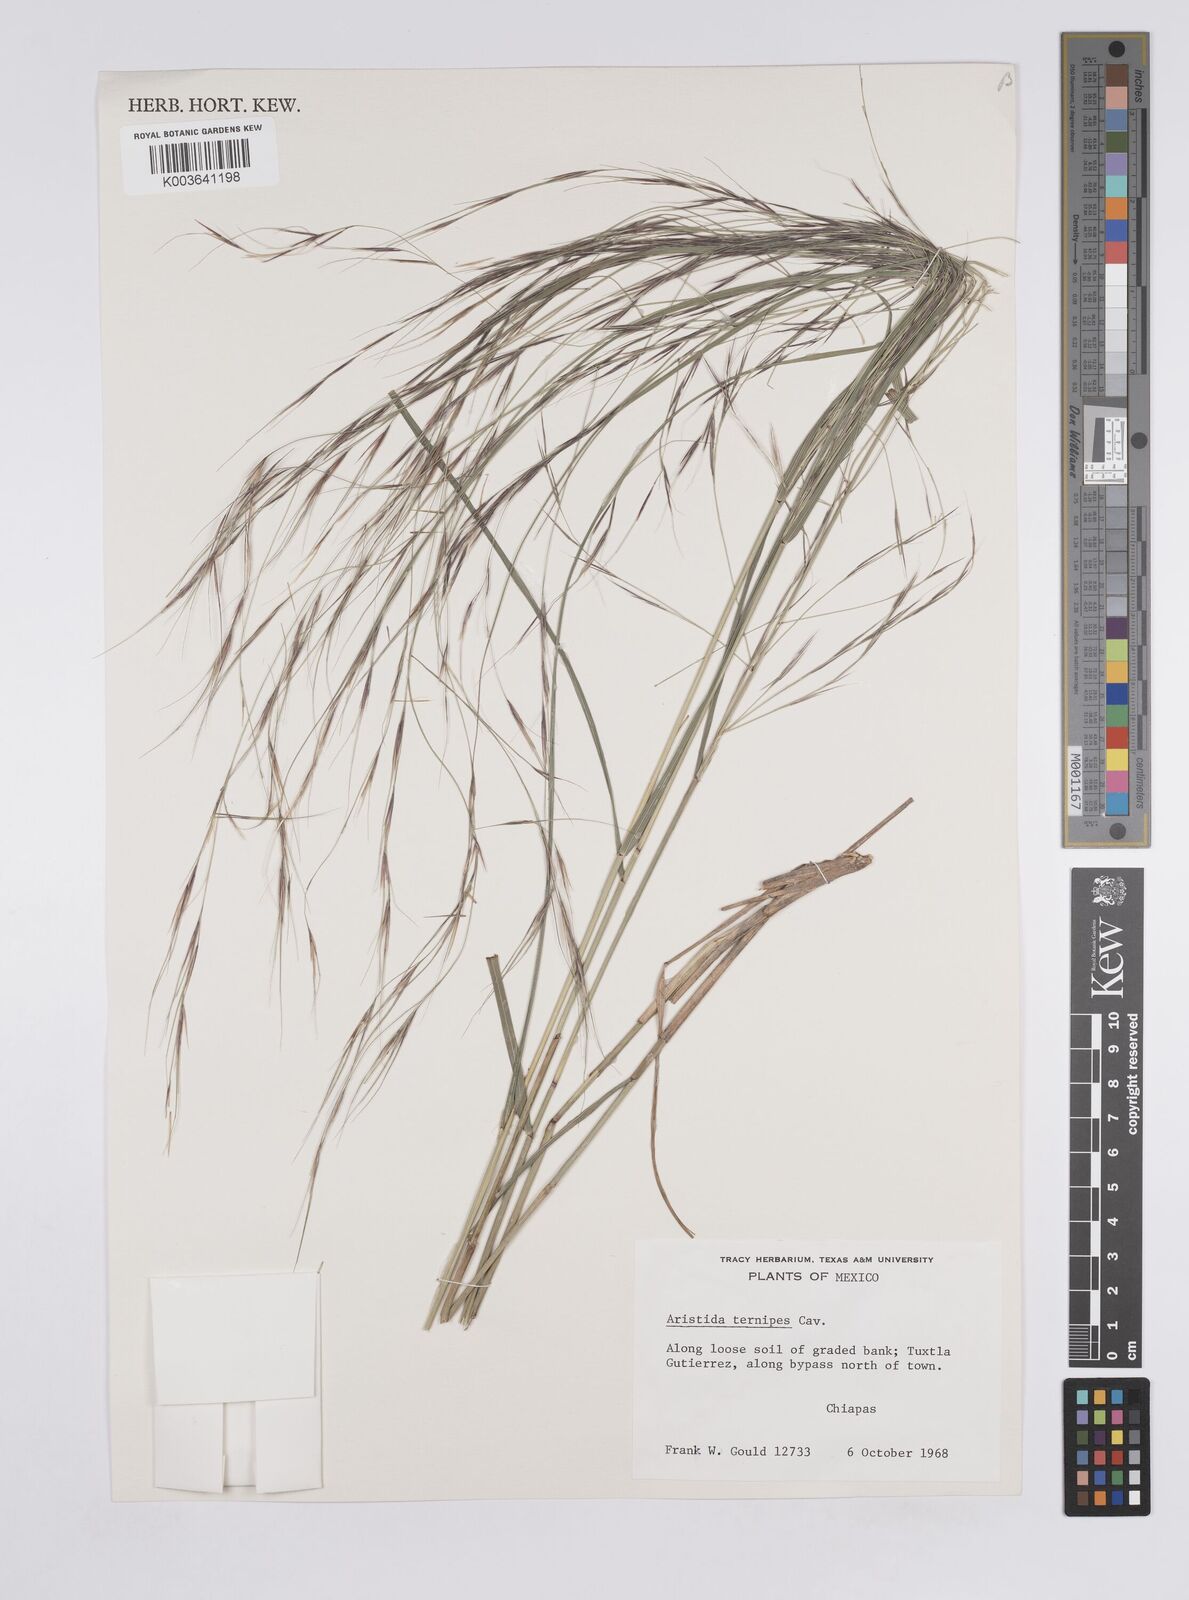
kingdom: Plantae
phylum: Tracheophyta
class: Liliopsida
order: Poales
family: Poaceae
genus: Aristida
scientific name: Aristida ternipes
